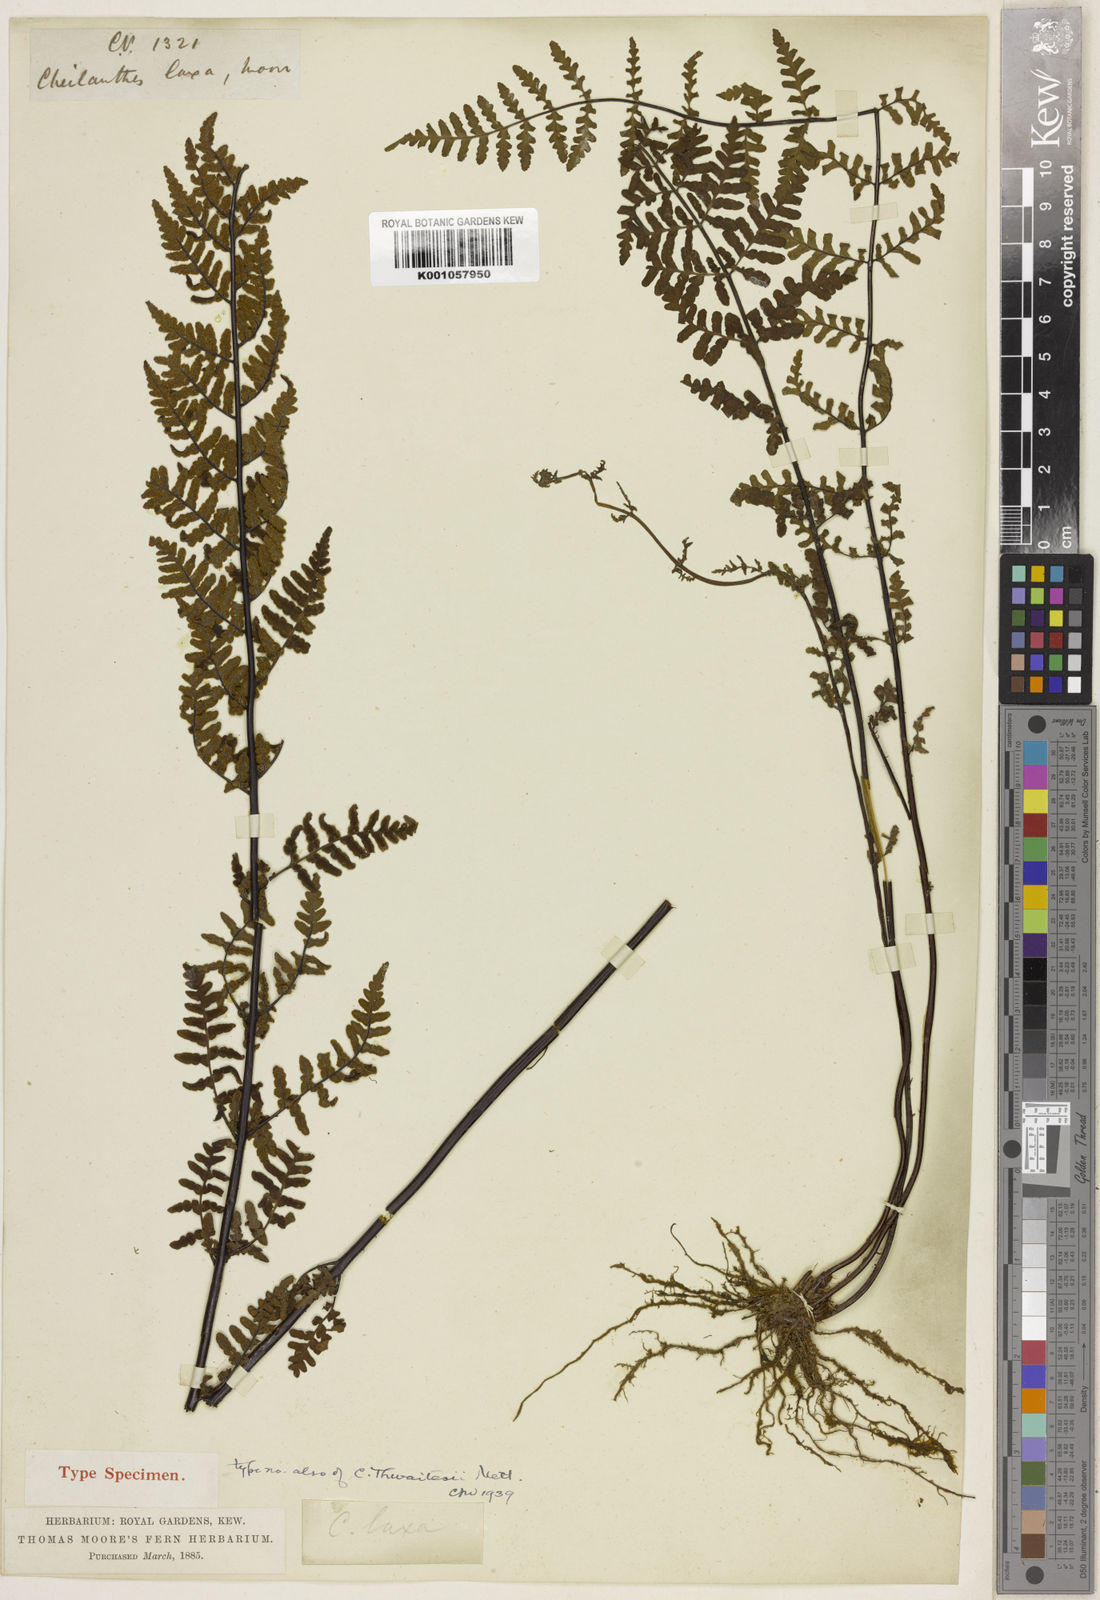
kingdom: Plantae
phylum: Tracheophyta
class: Polypodiopsida
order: Polypodiales
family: Pteridaceae
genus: Oeosporangium
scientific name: Oeosporangium thwaitesii
